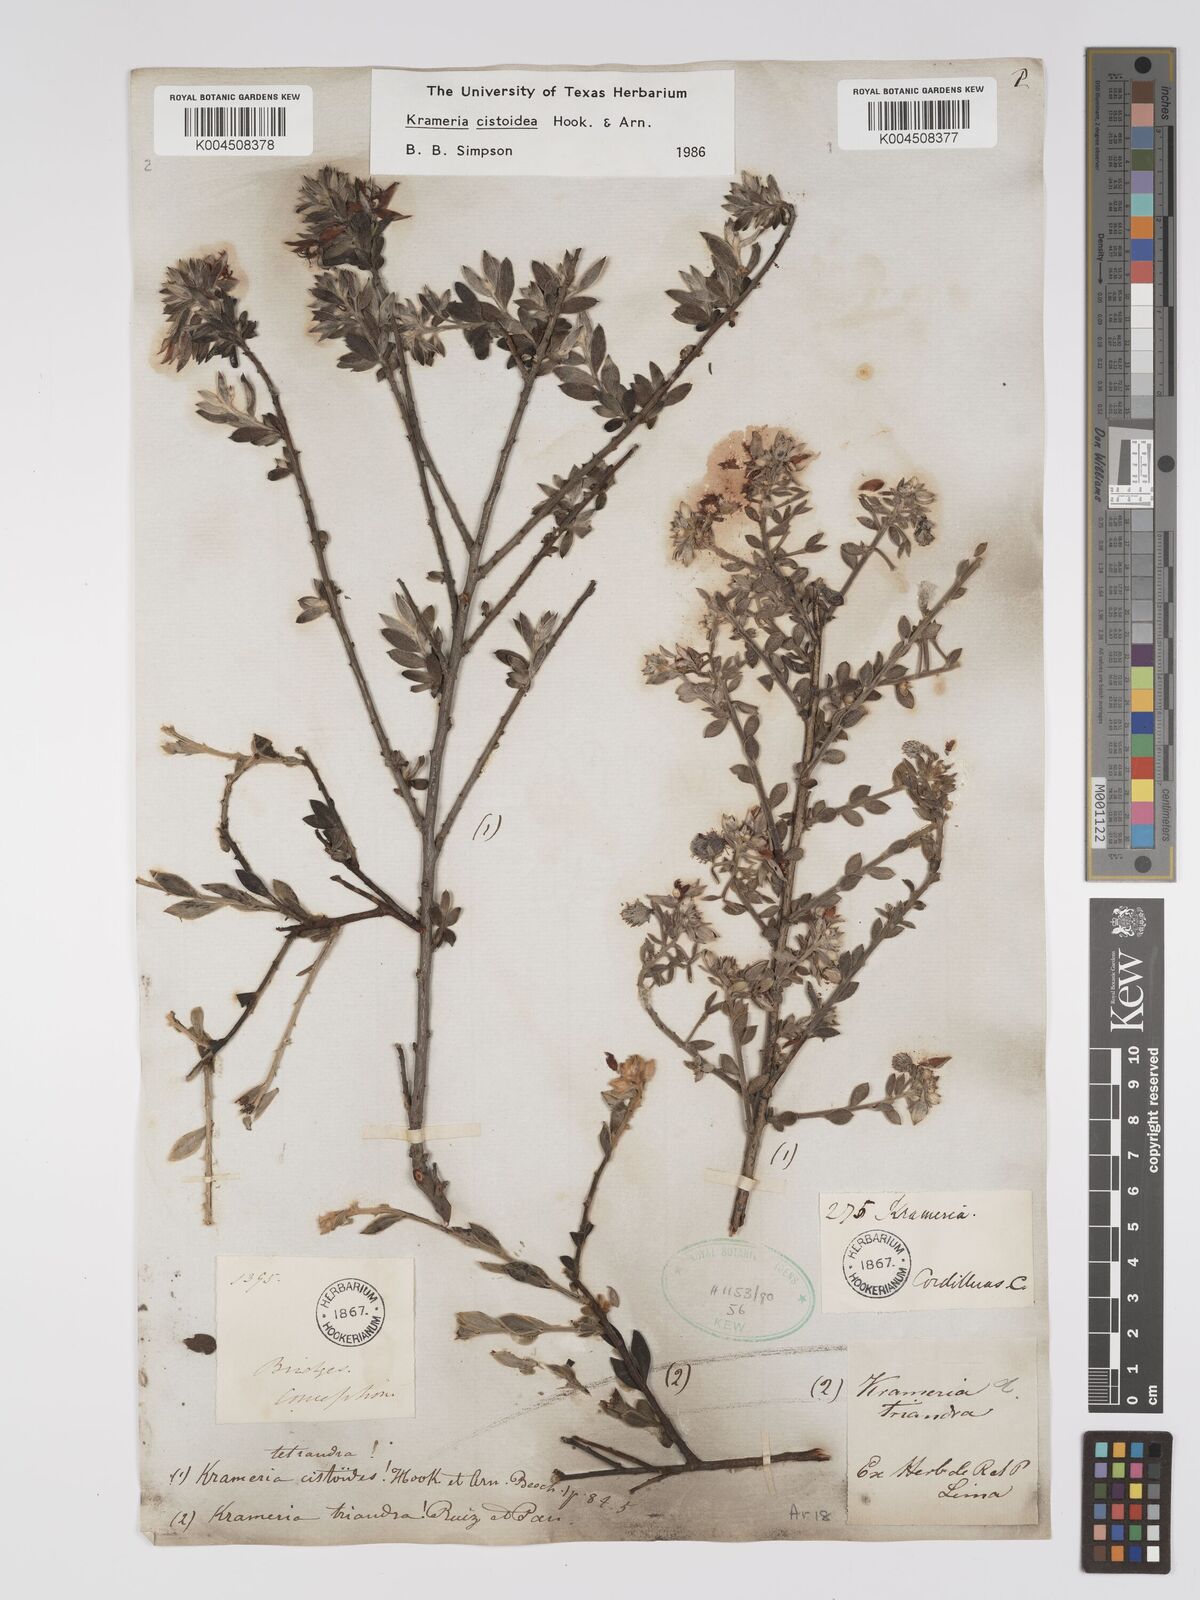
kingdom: Plantae
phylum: Tracheophyta
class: Magnoliopsida
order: Zygophyllales
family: Krameriaceae
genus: Krameria
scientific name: Krameria cistoidea
